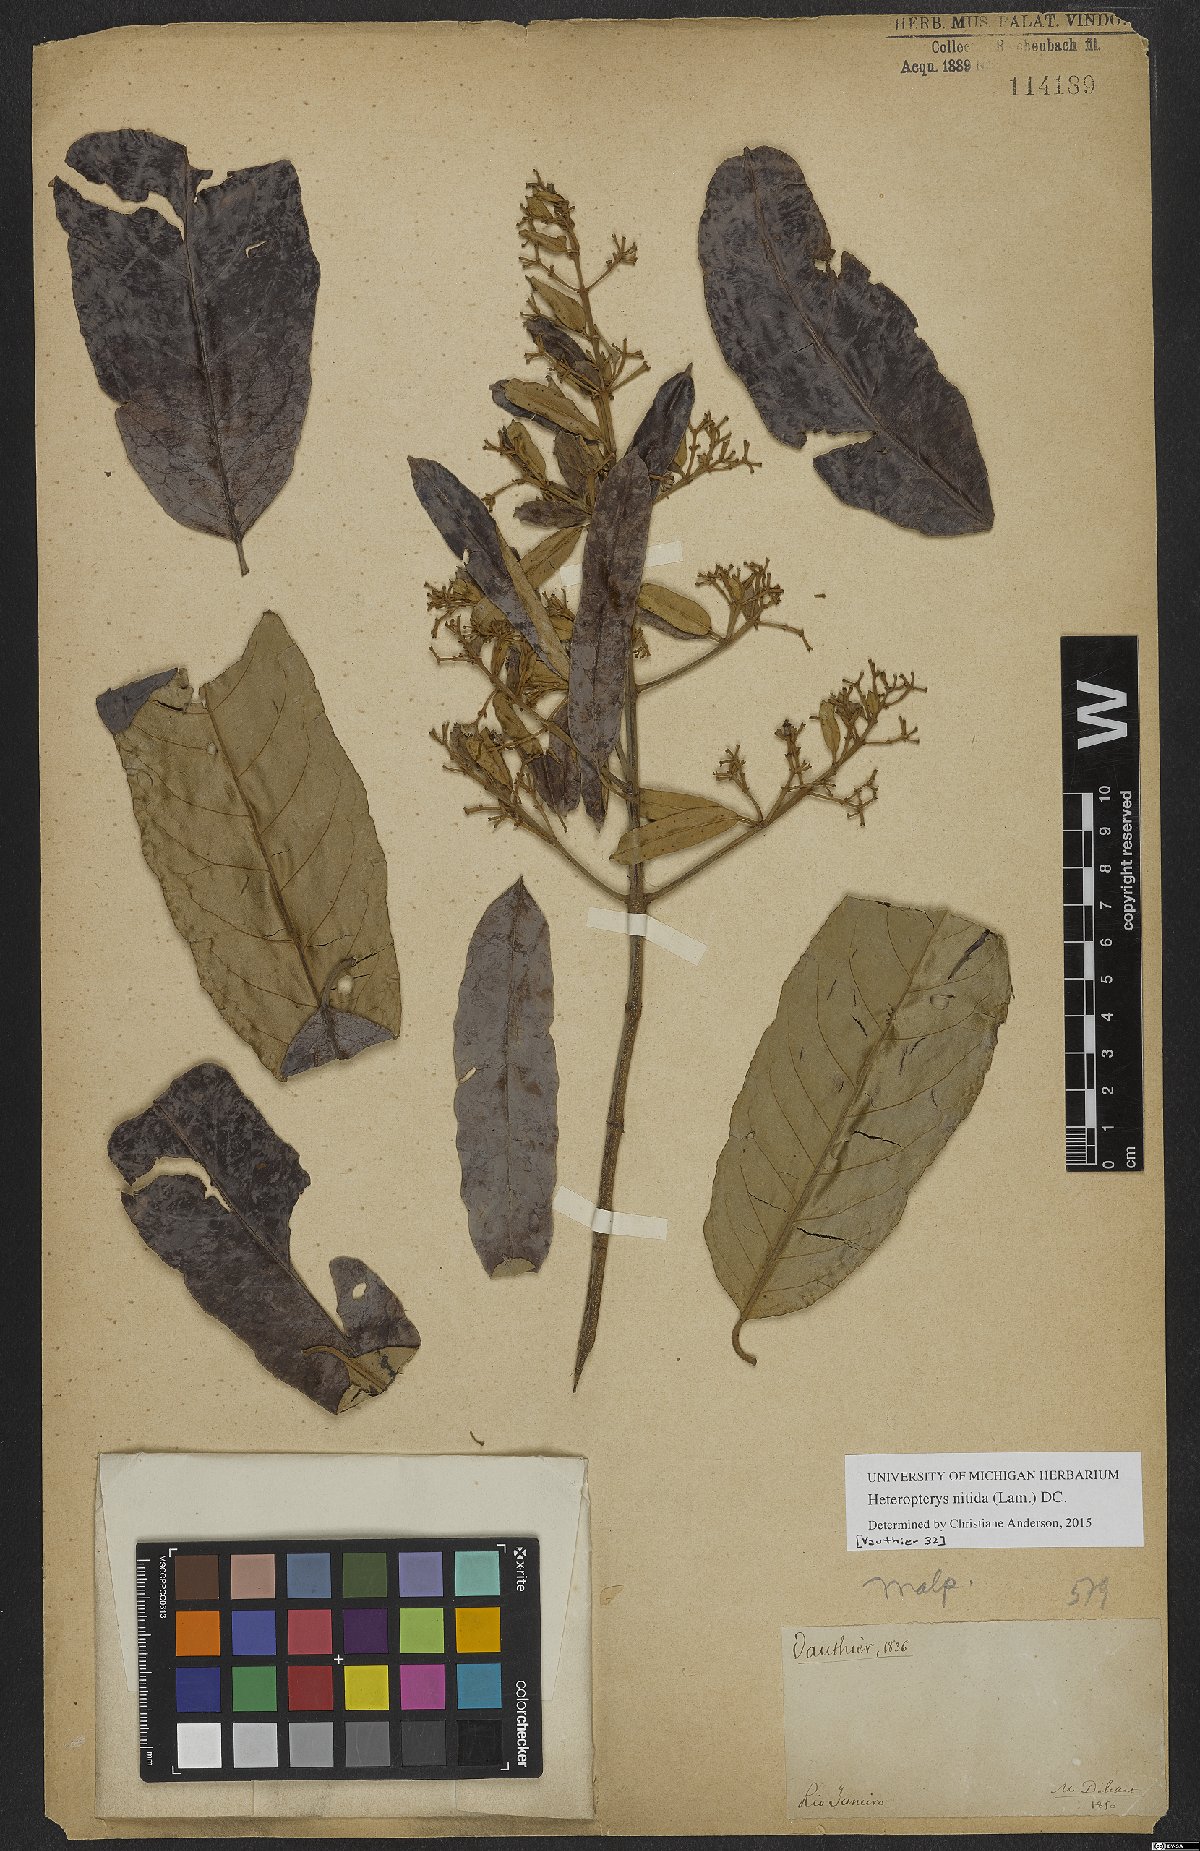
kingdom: Plantae
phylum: Tracheophyta
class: Magnoliopsida
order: Malpighiales
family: Malpighiaceae
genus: Heteropterys
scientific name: Heteropterys nitida
